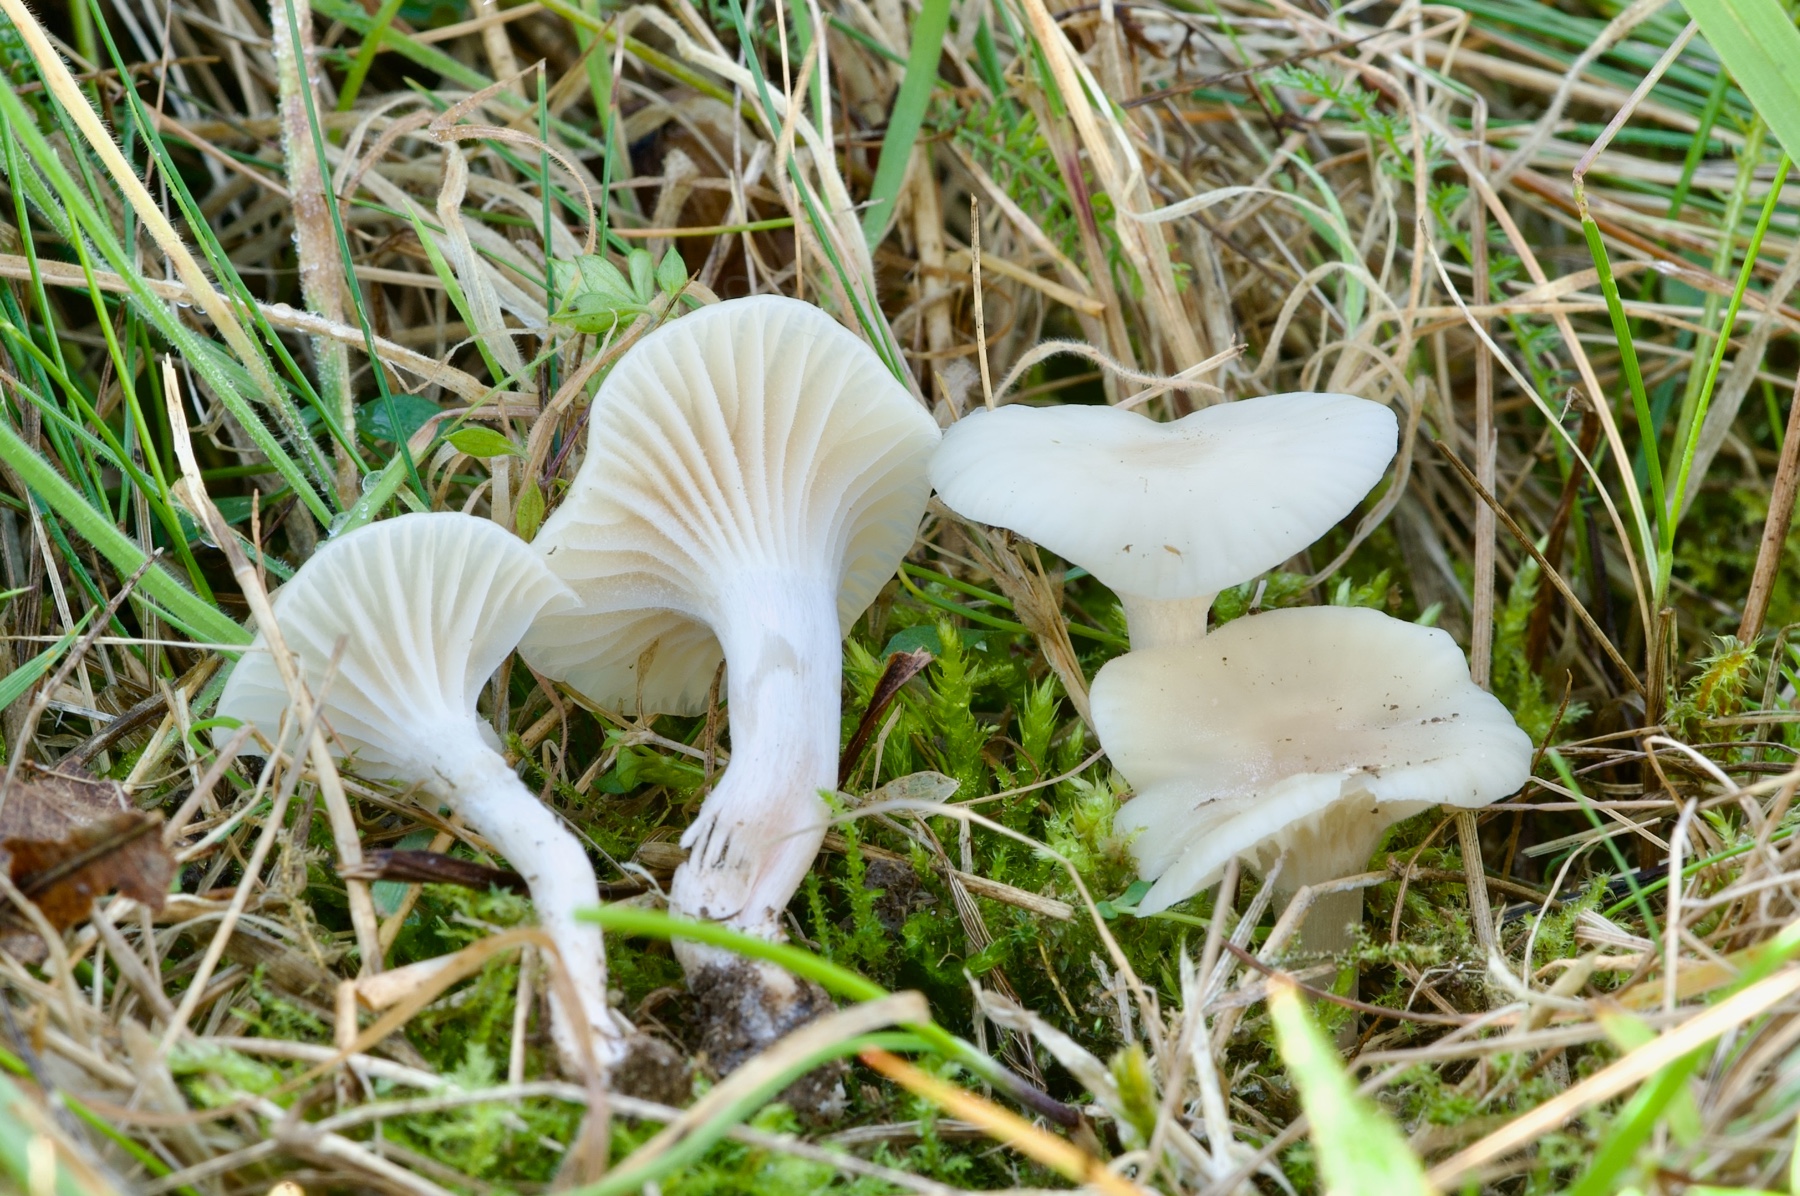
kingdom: Fungi
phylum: Basidiomycota
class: Agaricomycetes
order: Agaricales
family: Hygrophoraceae
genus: Cuphophyllus
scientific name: Cuphophyllus virgineus
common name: snehvid vokshat
